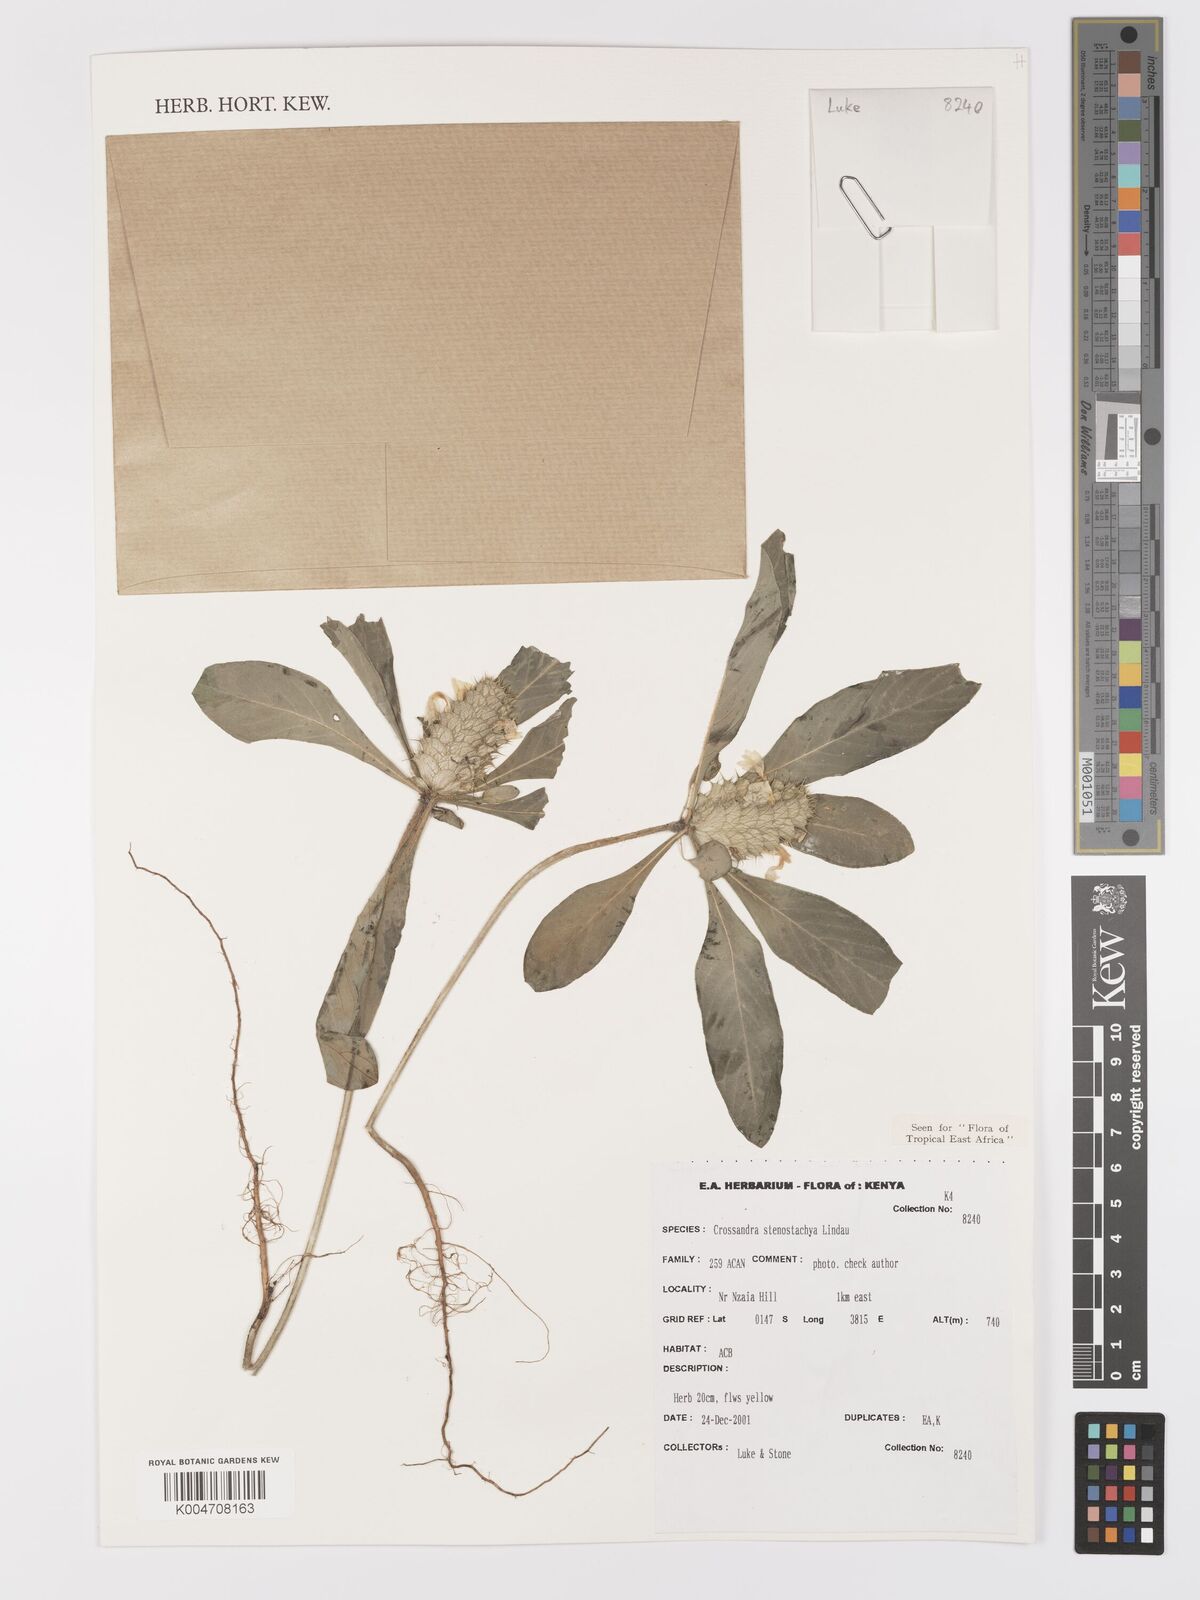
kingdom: Plantae
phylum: Tracheophyta
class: Magnoliopsida
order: Lamiales
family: Acanthaceae
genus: Crossandra
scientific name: Crossandra stenostachya
